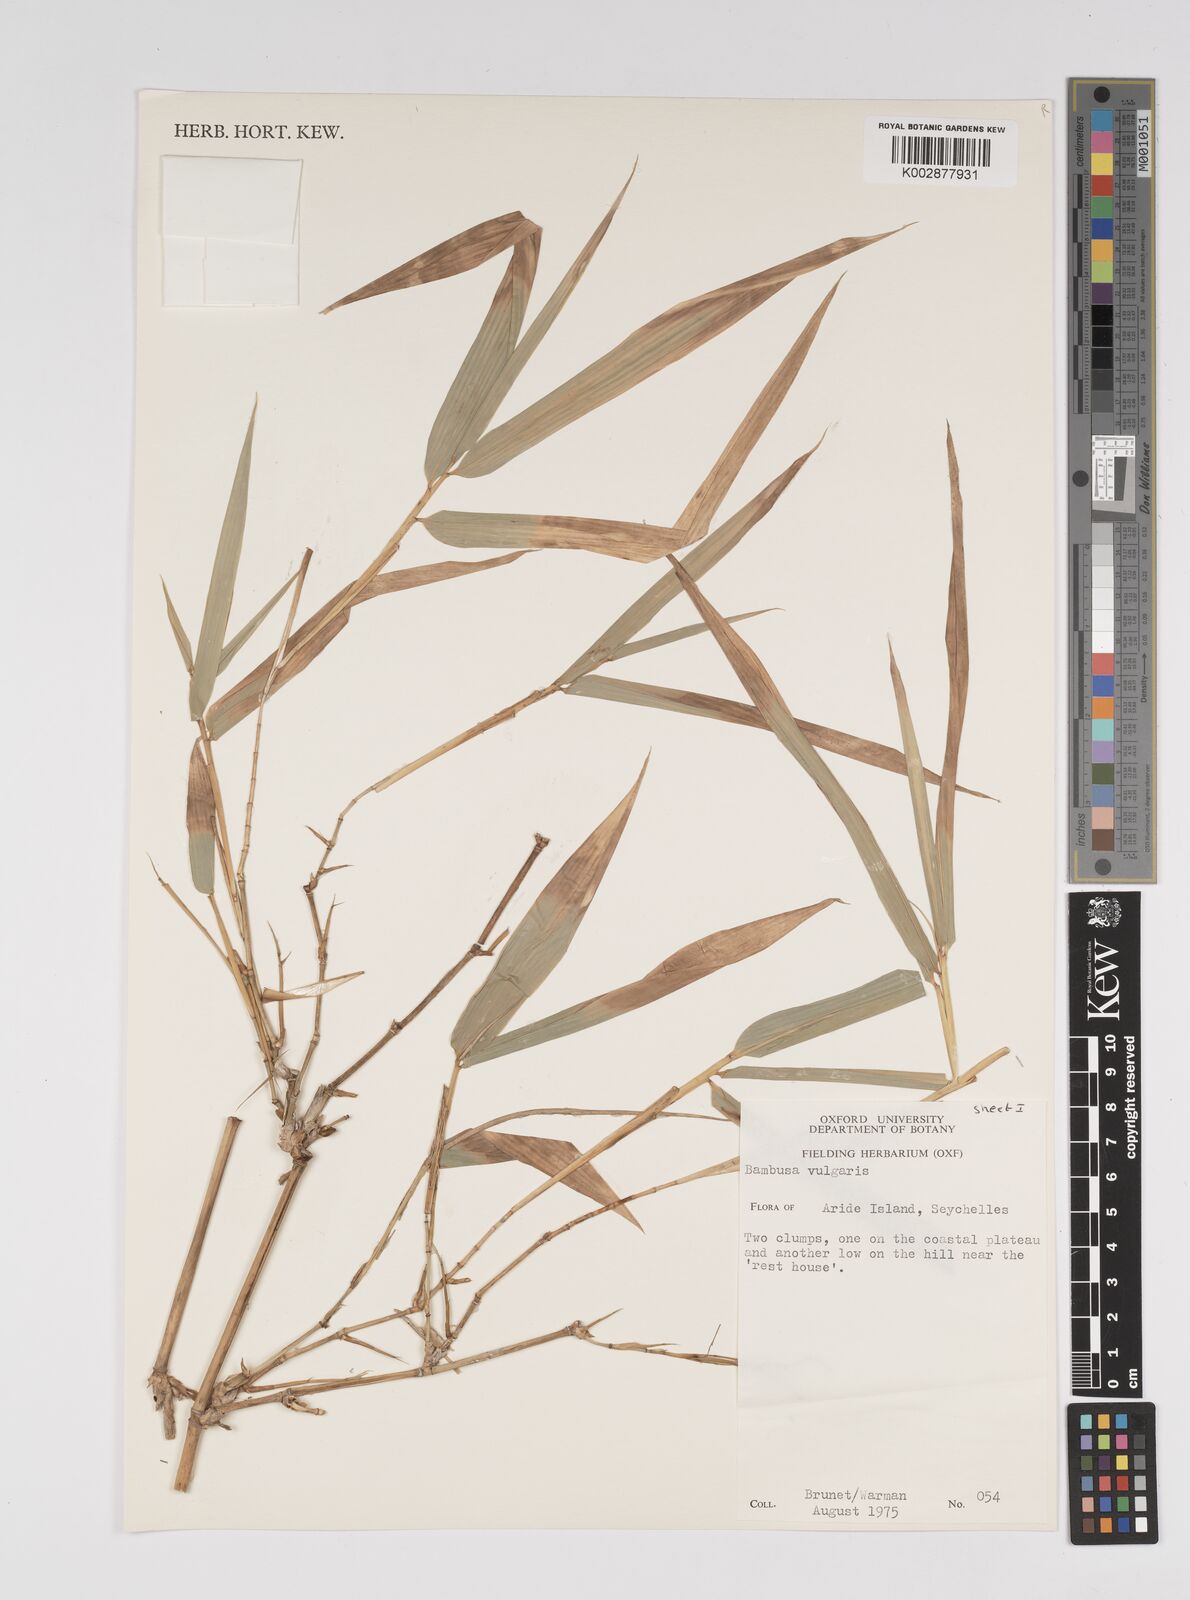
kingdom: Plantae
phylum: Tracheophyta
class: Liliopsida
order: Poales
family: Poaceae
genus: Bambusa
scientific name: Bambusa
